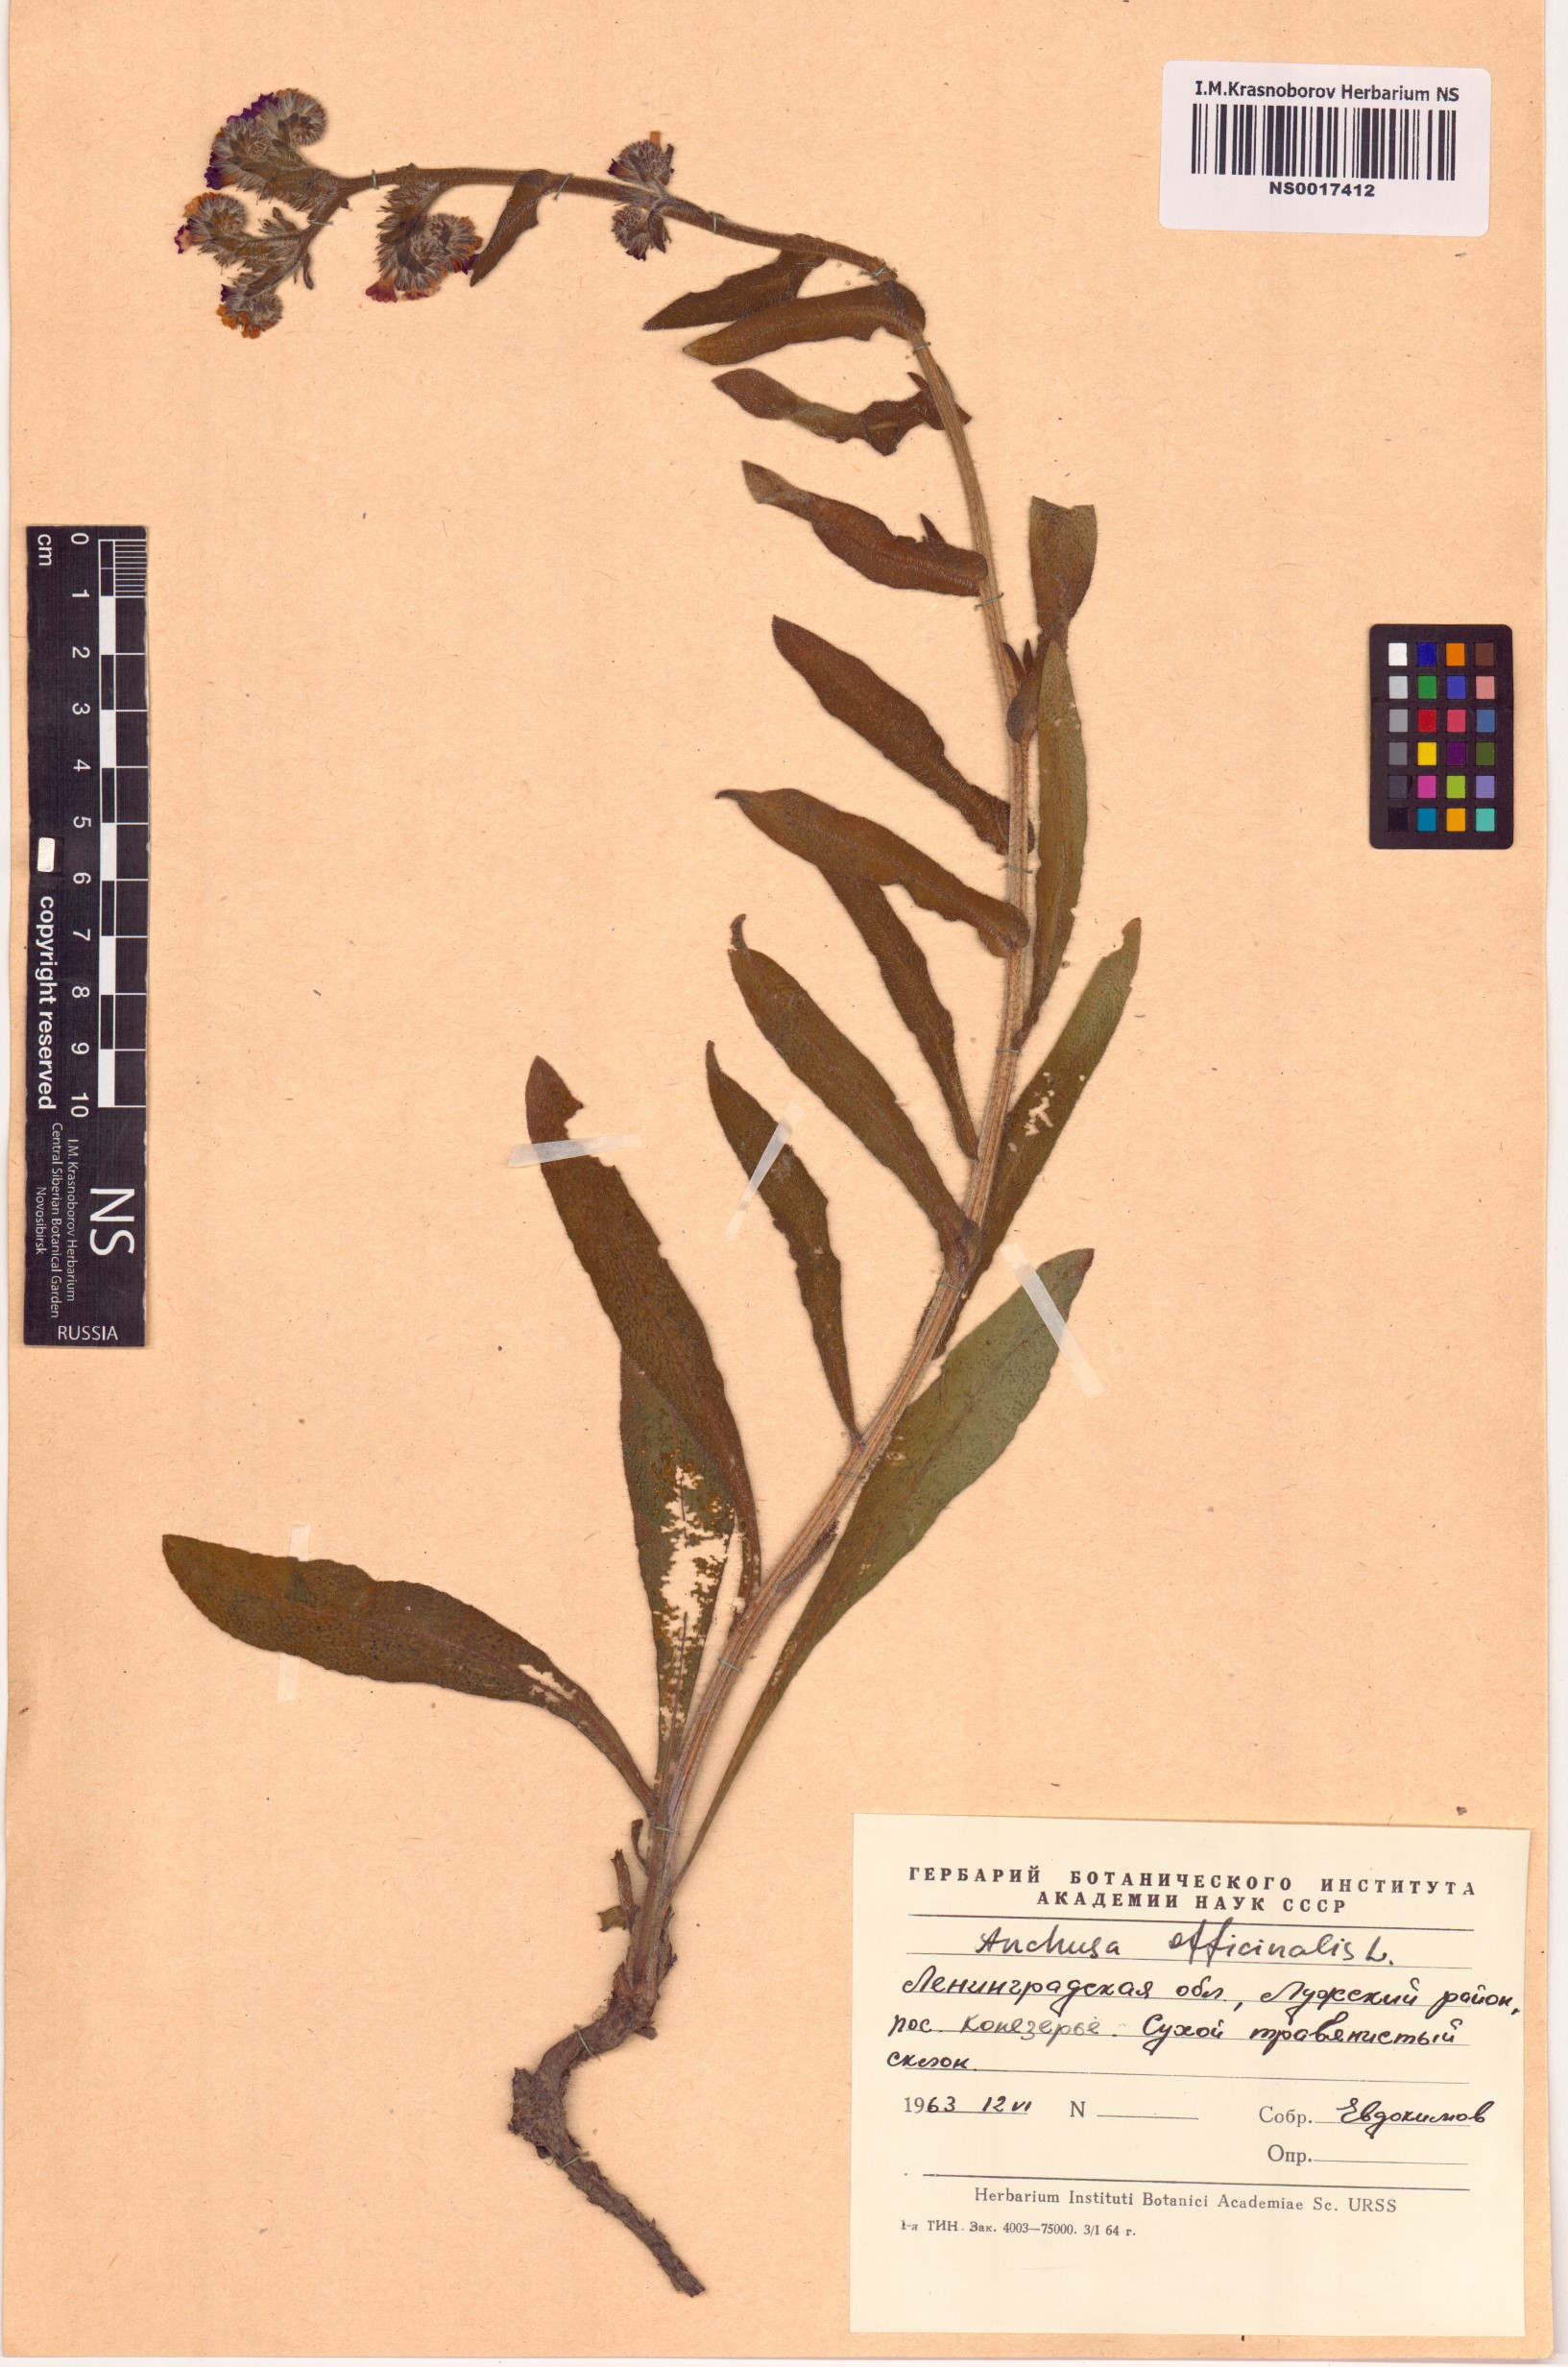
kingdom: Plantae
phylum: Tracheophyta
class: Magnoliopsida
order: Boraginales
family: Boraginaceae
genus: Anchusa
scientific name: Anchusa officinalis
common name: Alkanet
